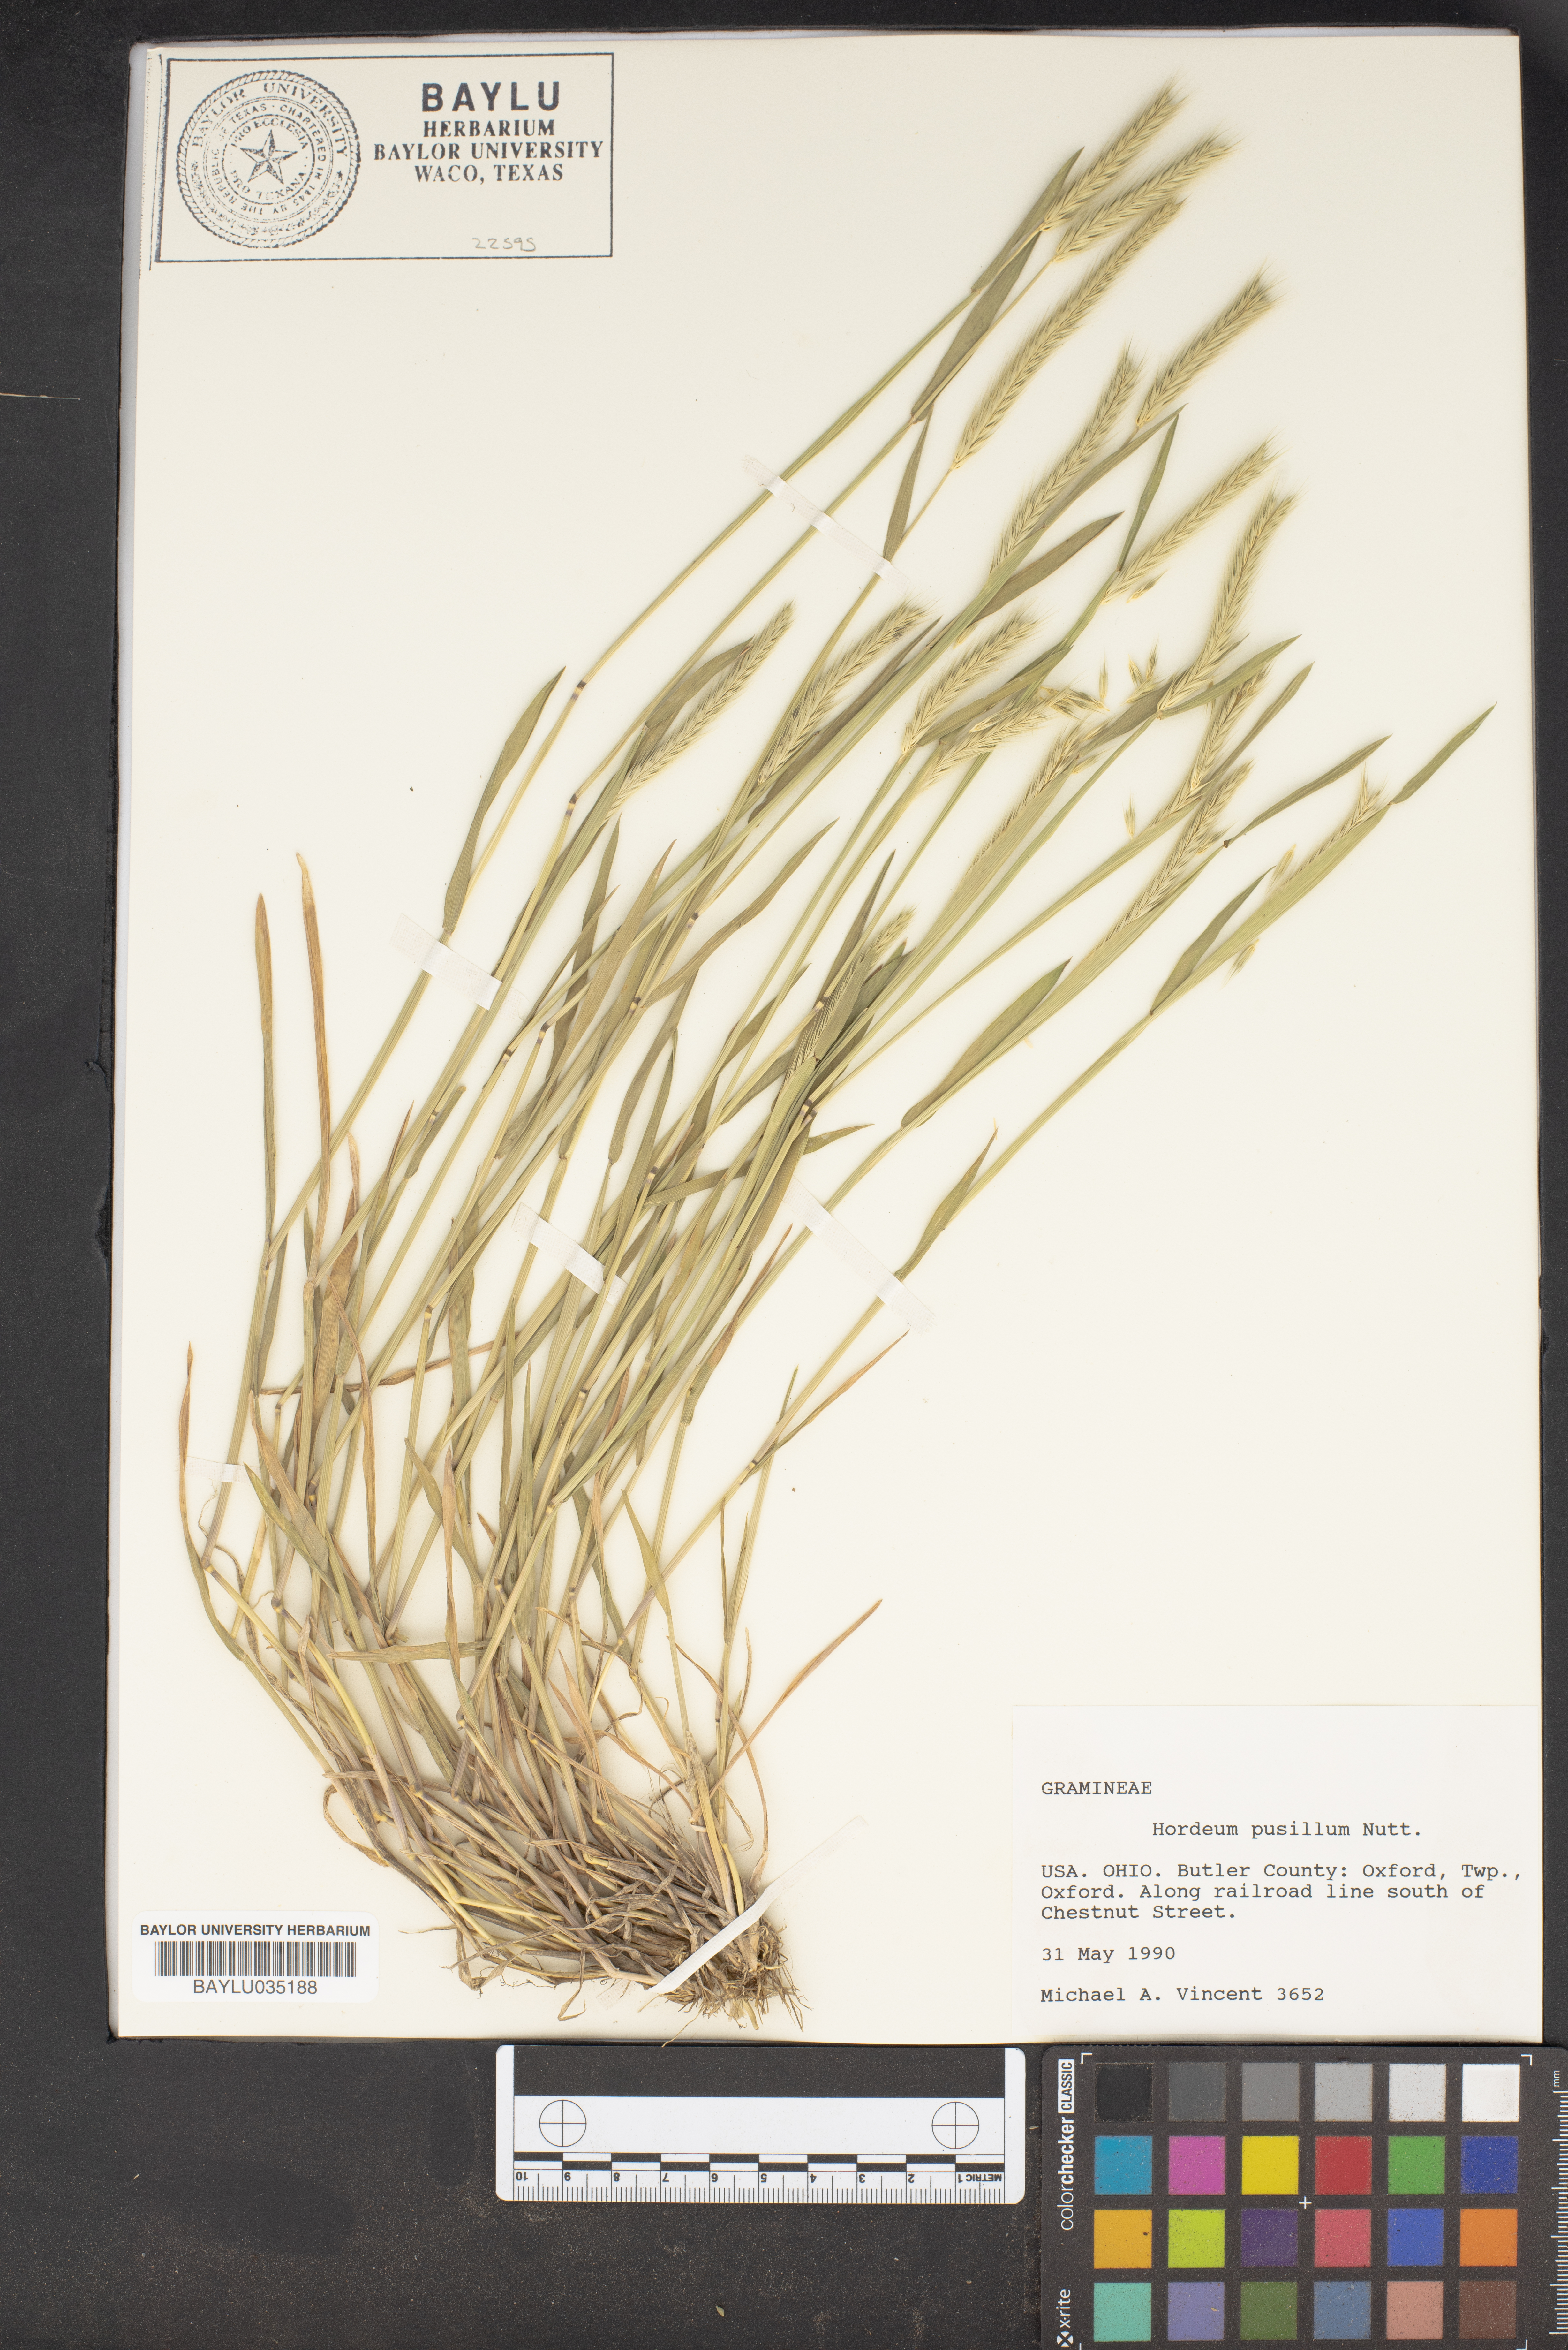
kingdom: Plantae
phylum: Tracheophyta
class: Liliopsida
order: Poales
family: Poaceae
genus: Hordeum
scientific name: Hordeum pusillum
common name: Little barley
